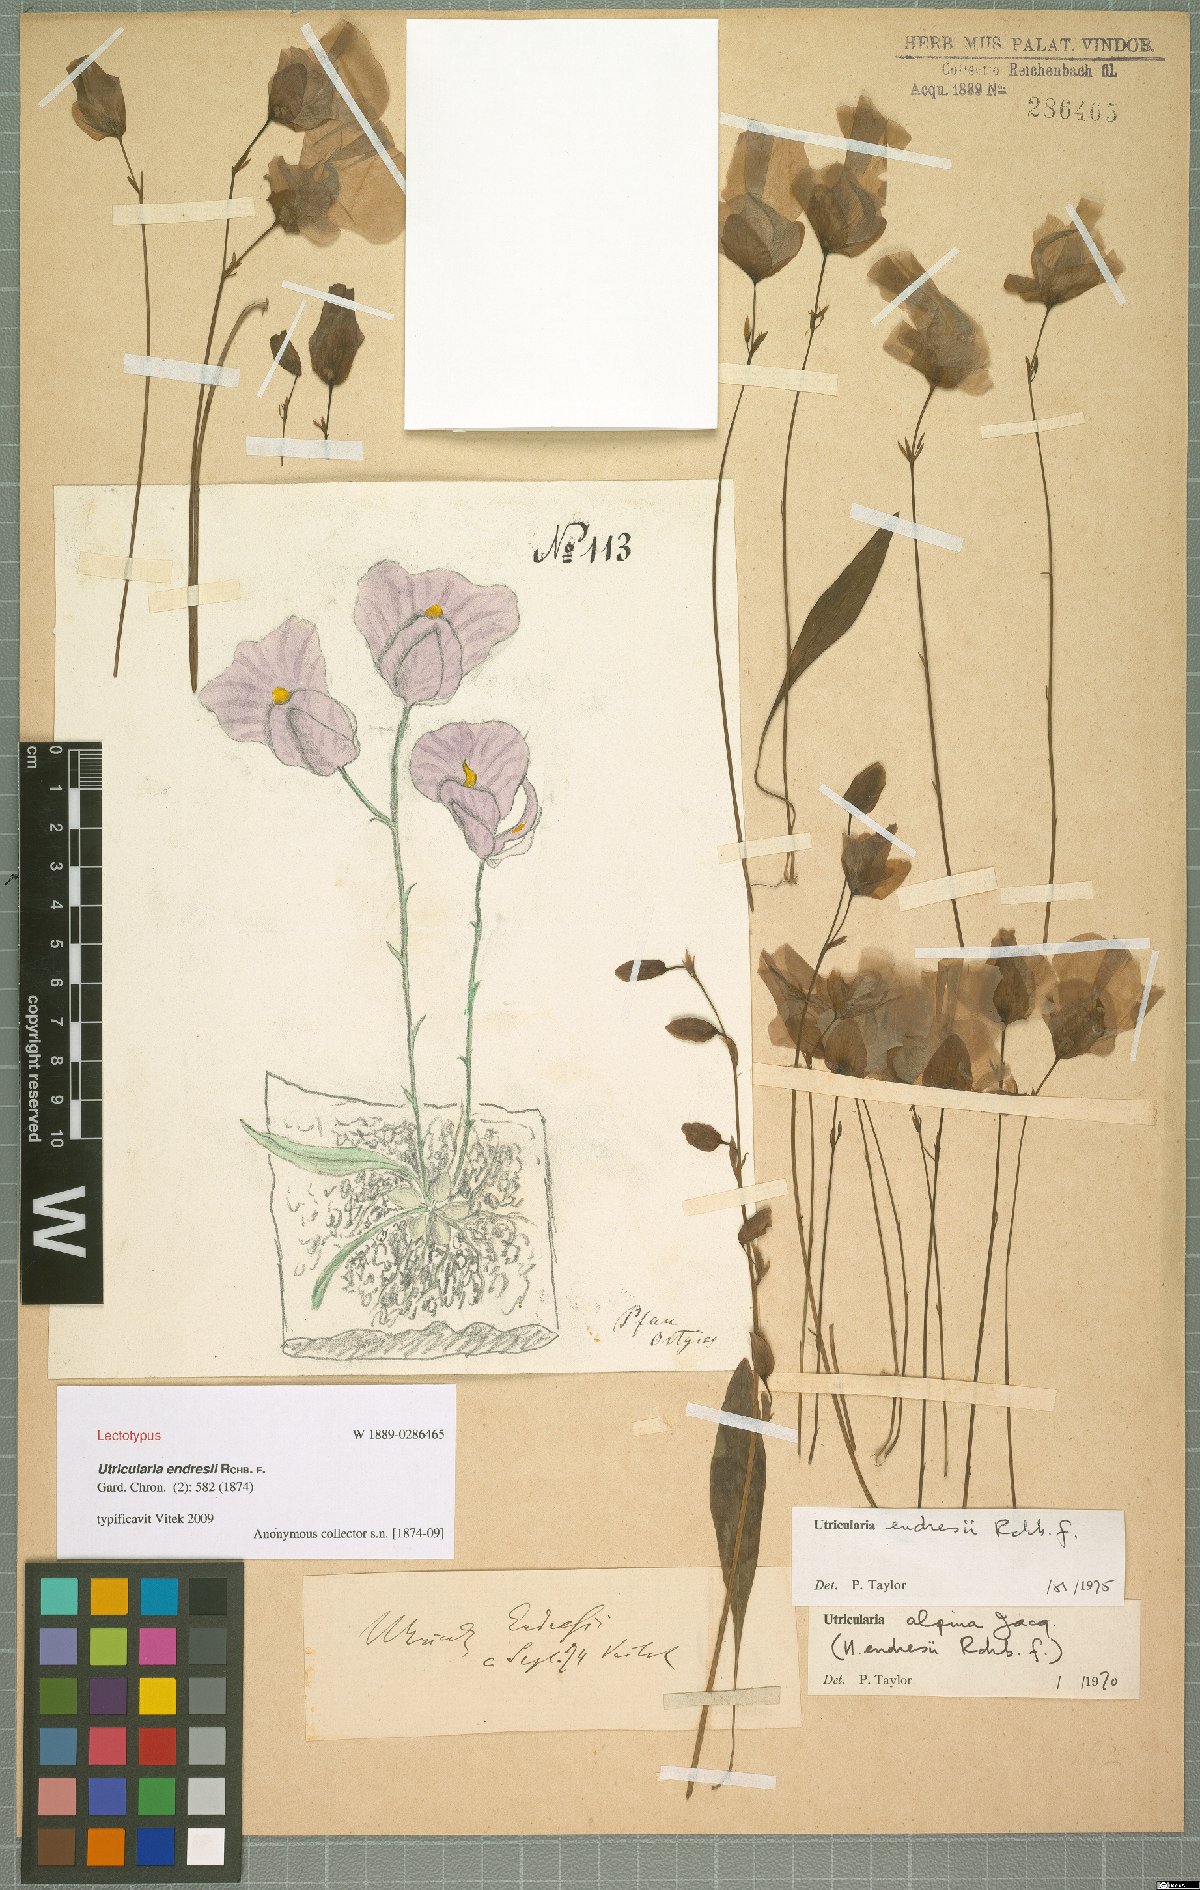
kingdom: Plantae
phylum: Tracheophyta
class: Magnoliopsida
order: Lamiales
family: Lentibulariaceae
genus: Utricularia
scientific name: Utricularia endresii
